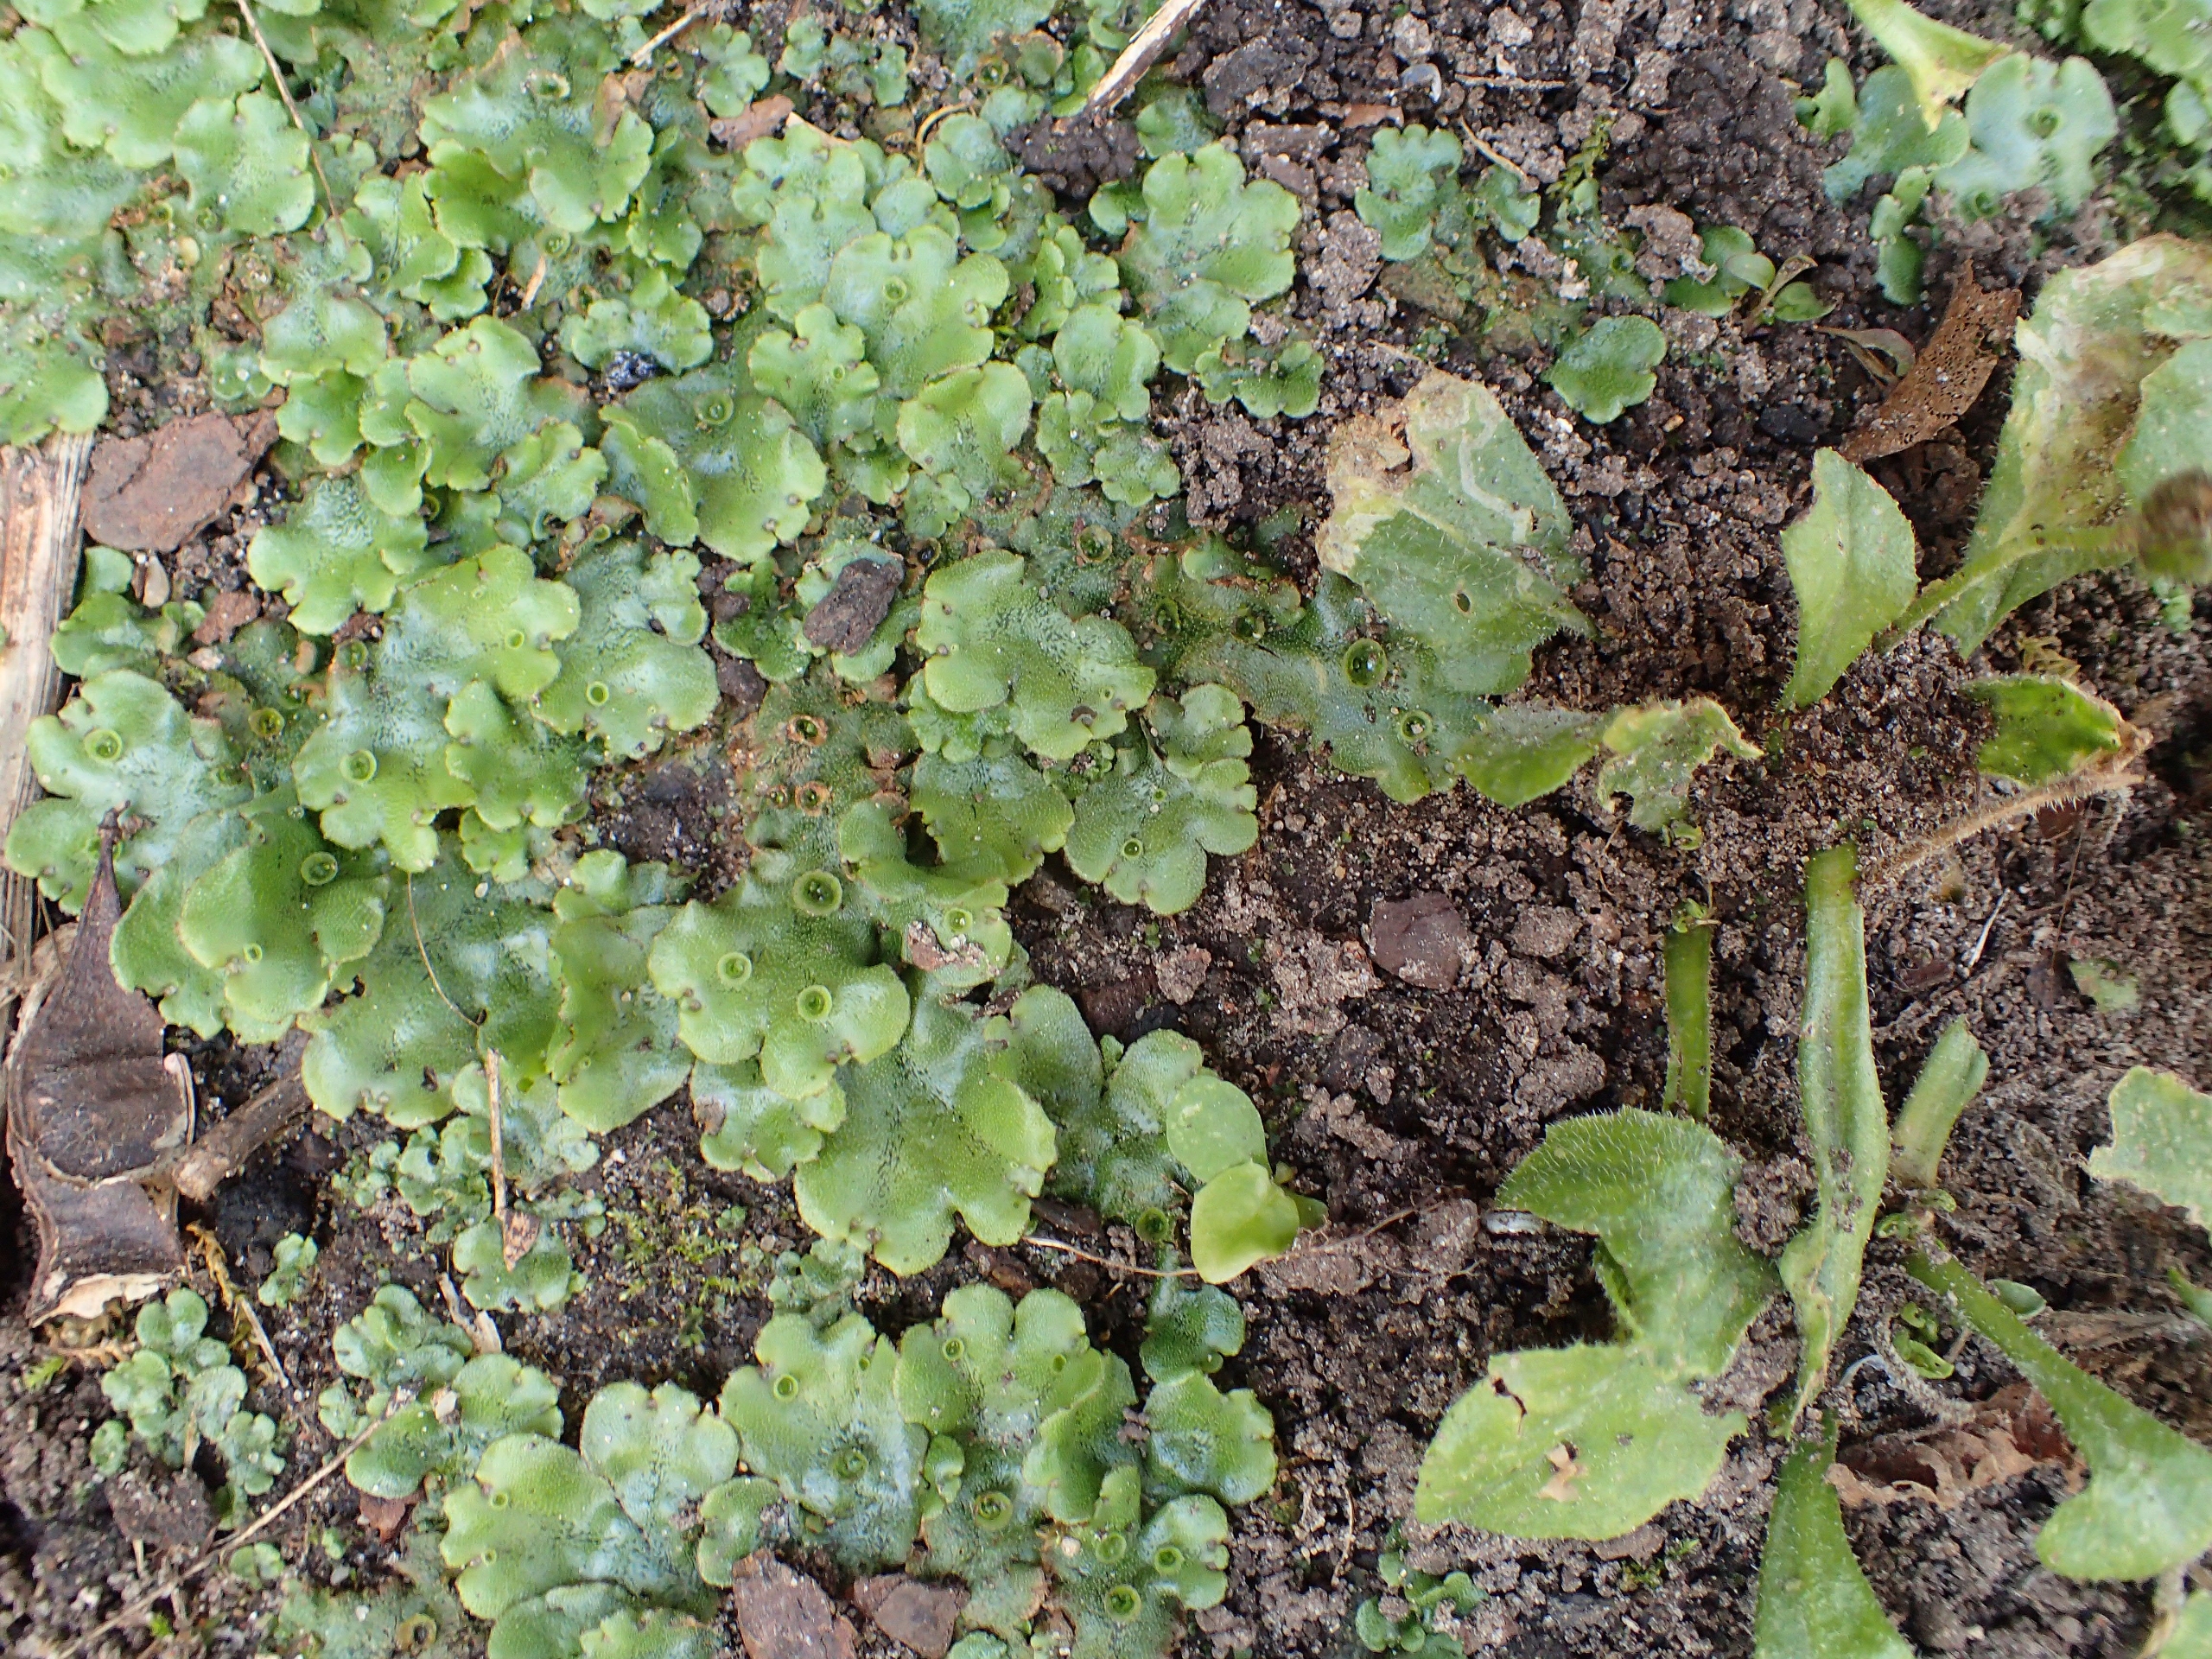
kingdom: Plantae
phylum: Marchantiophyta
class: Marchantiopsida
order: Marchantiales
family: Marchantiaceae
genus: Marchantia
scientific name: Marchantia polymorpha
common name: Almindelig lungemos (underart)
